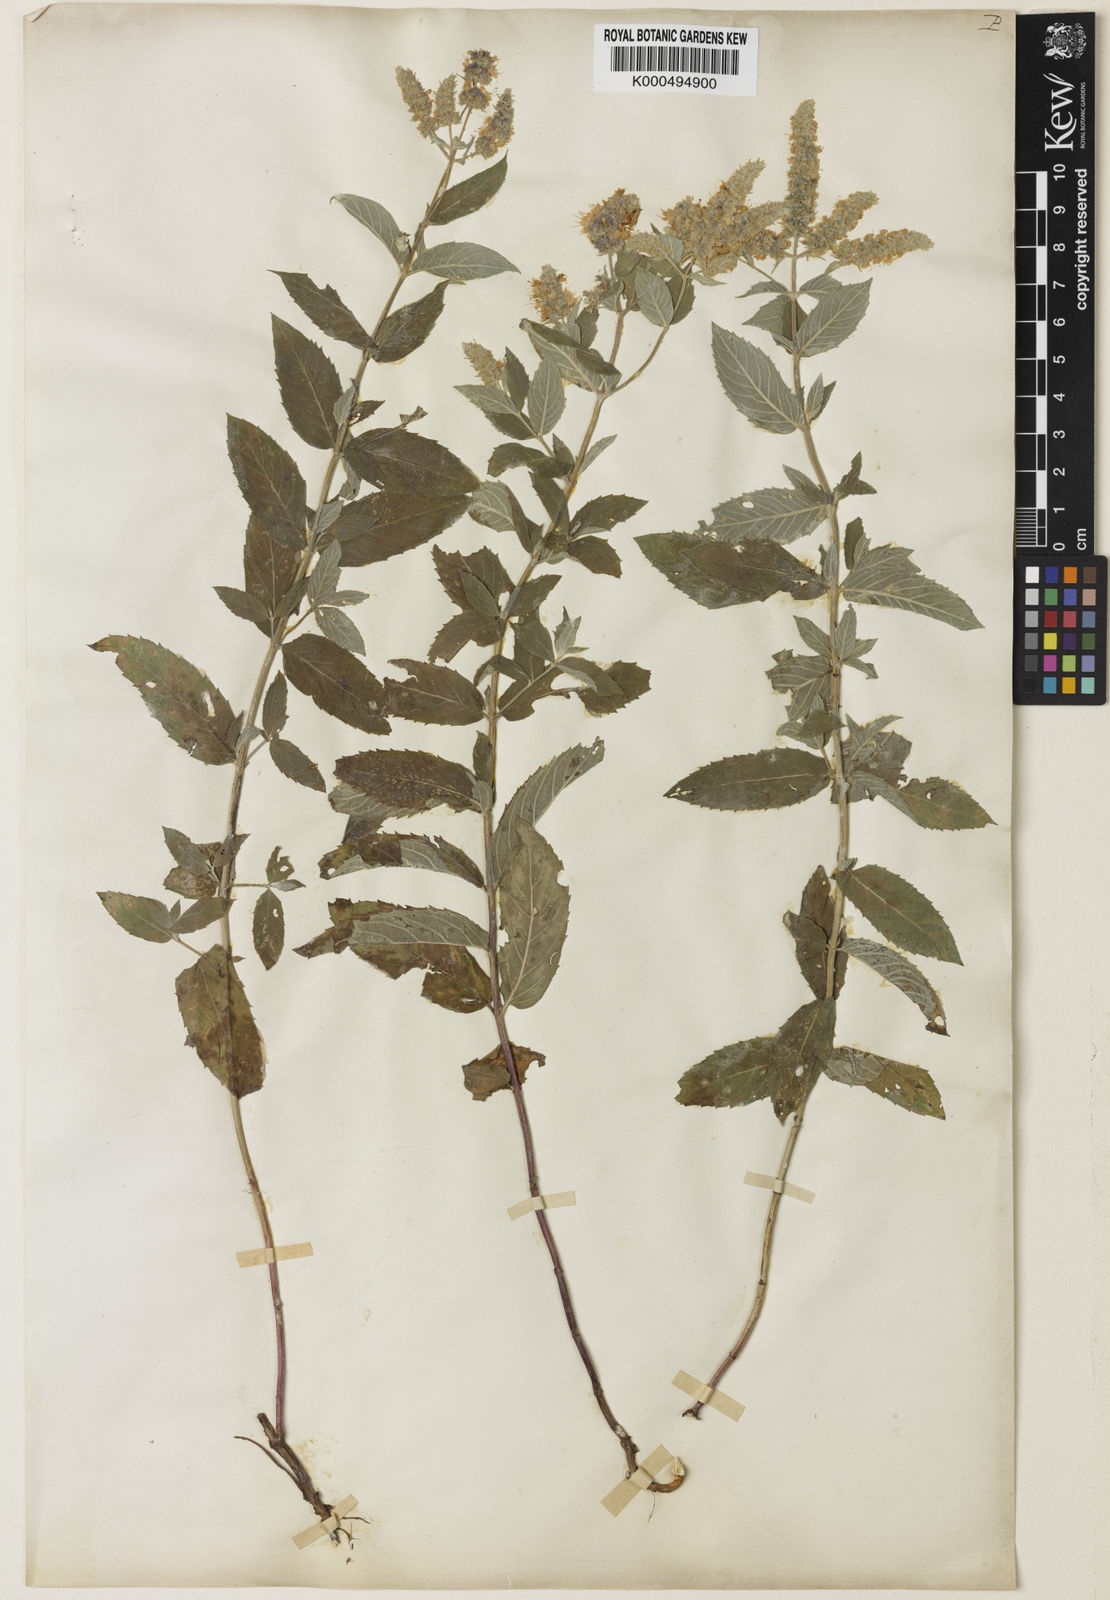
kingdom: Plantae
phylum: Tracheophyta
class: Magnoliopsida
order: Lamiales
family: Lamiaceae
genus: Mentha
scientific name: Mentha
